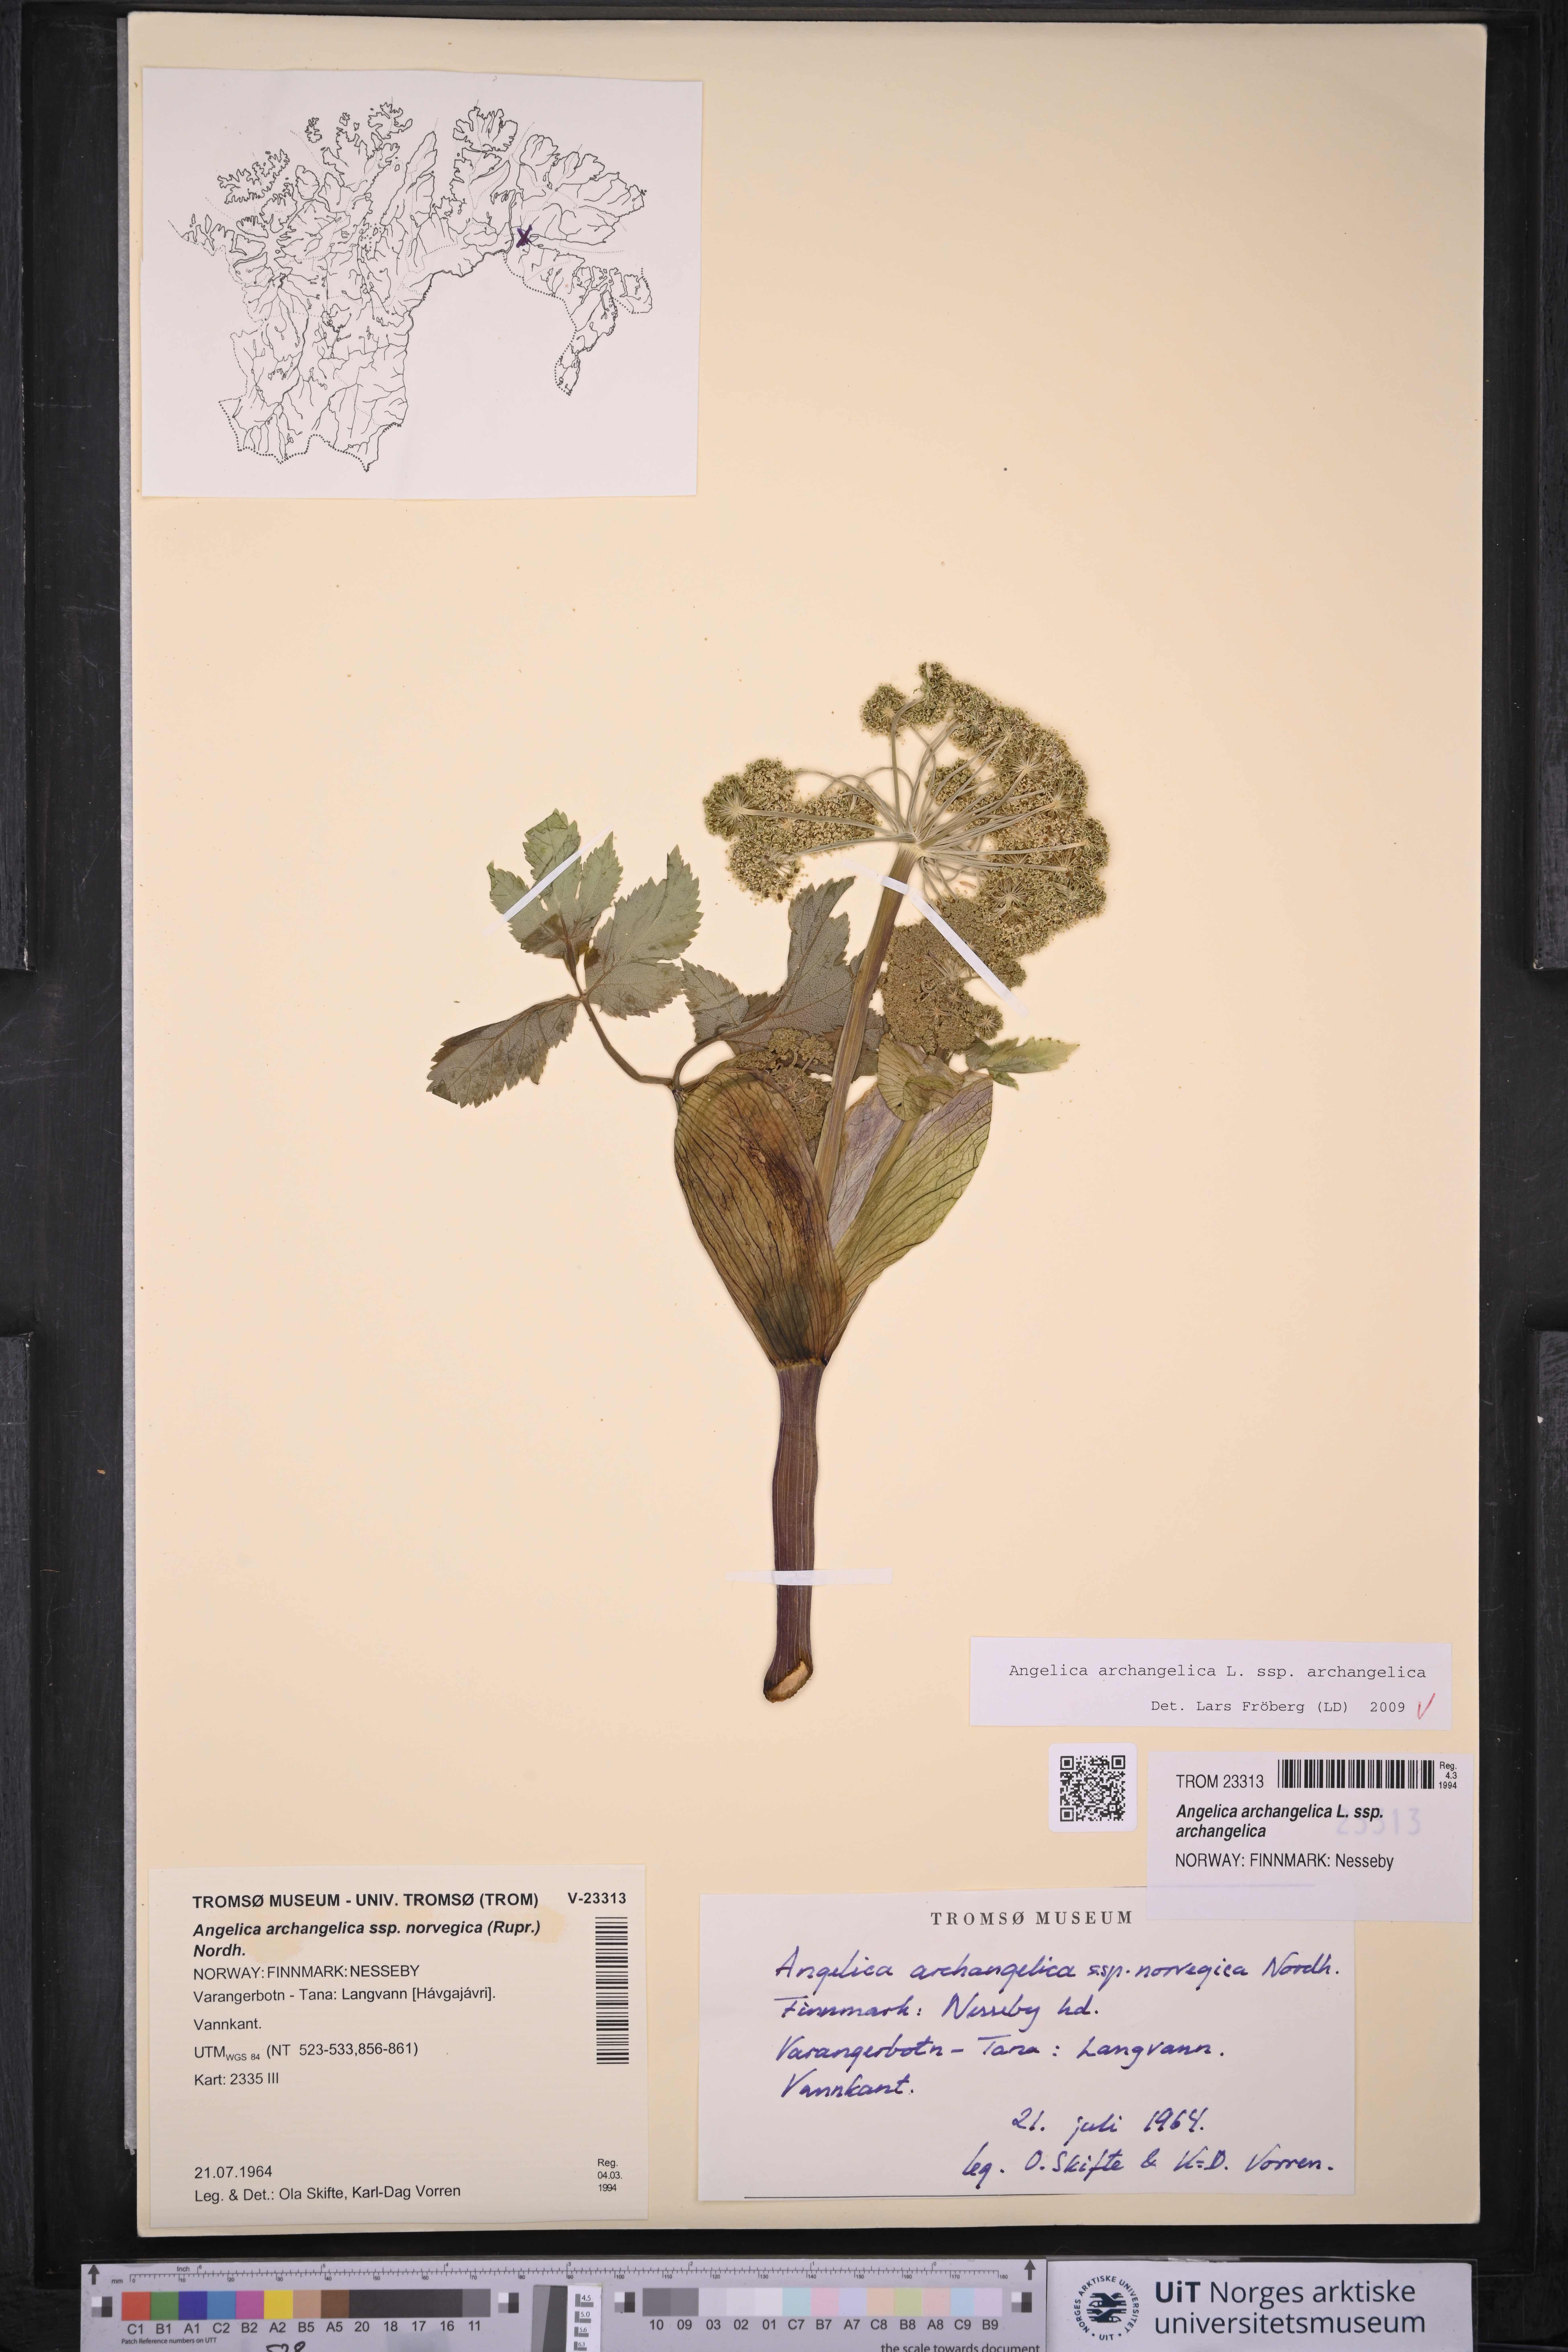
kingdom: Plantae
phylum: Tracheophyta
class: Magnoliopsida
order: Apiales
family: Apiaceae
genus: Angelica
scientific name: Angelica archangelica
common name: Garden angelica
